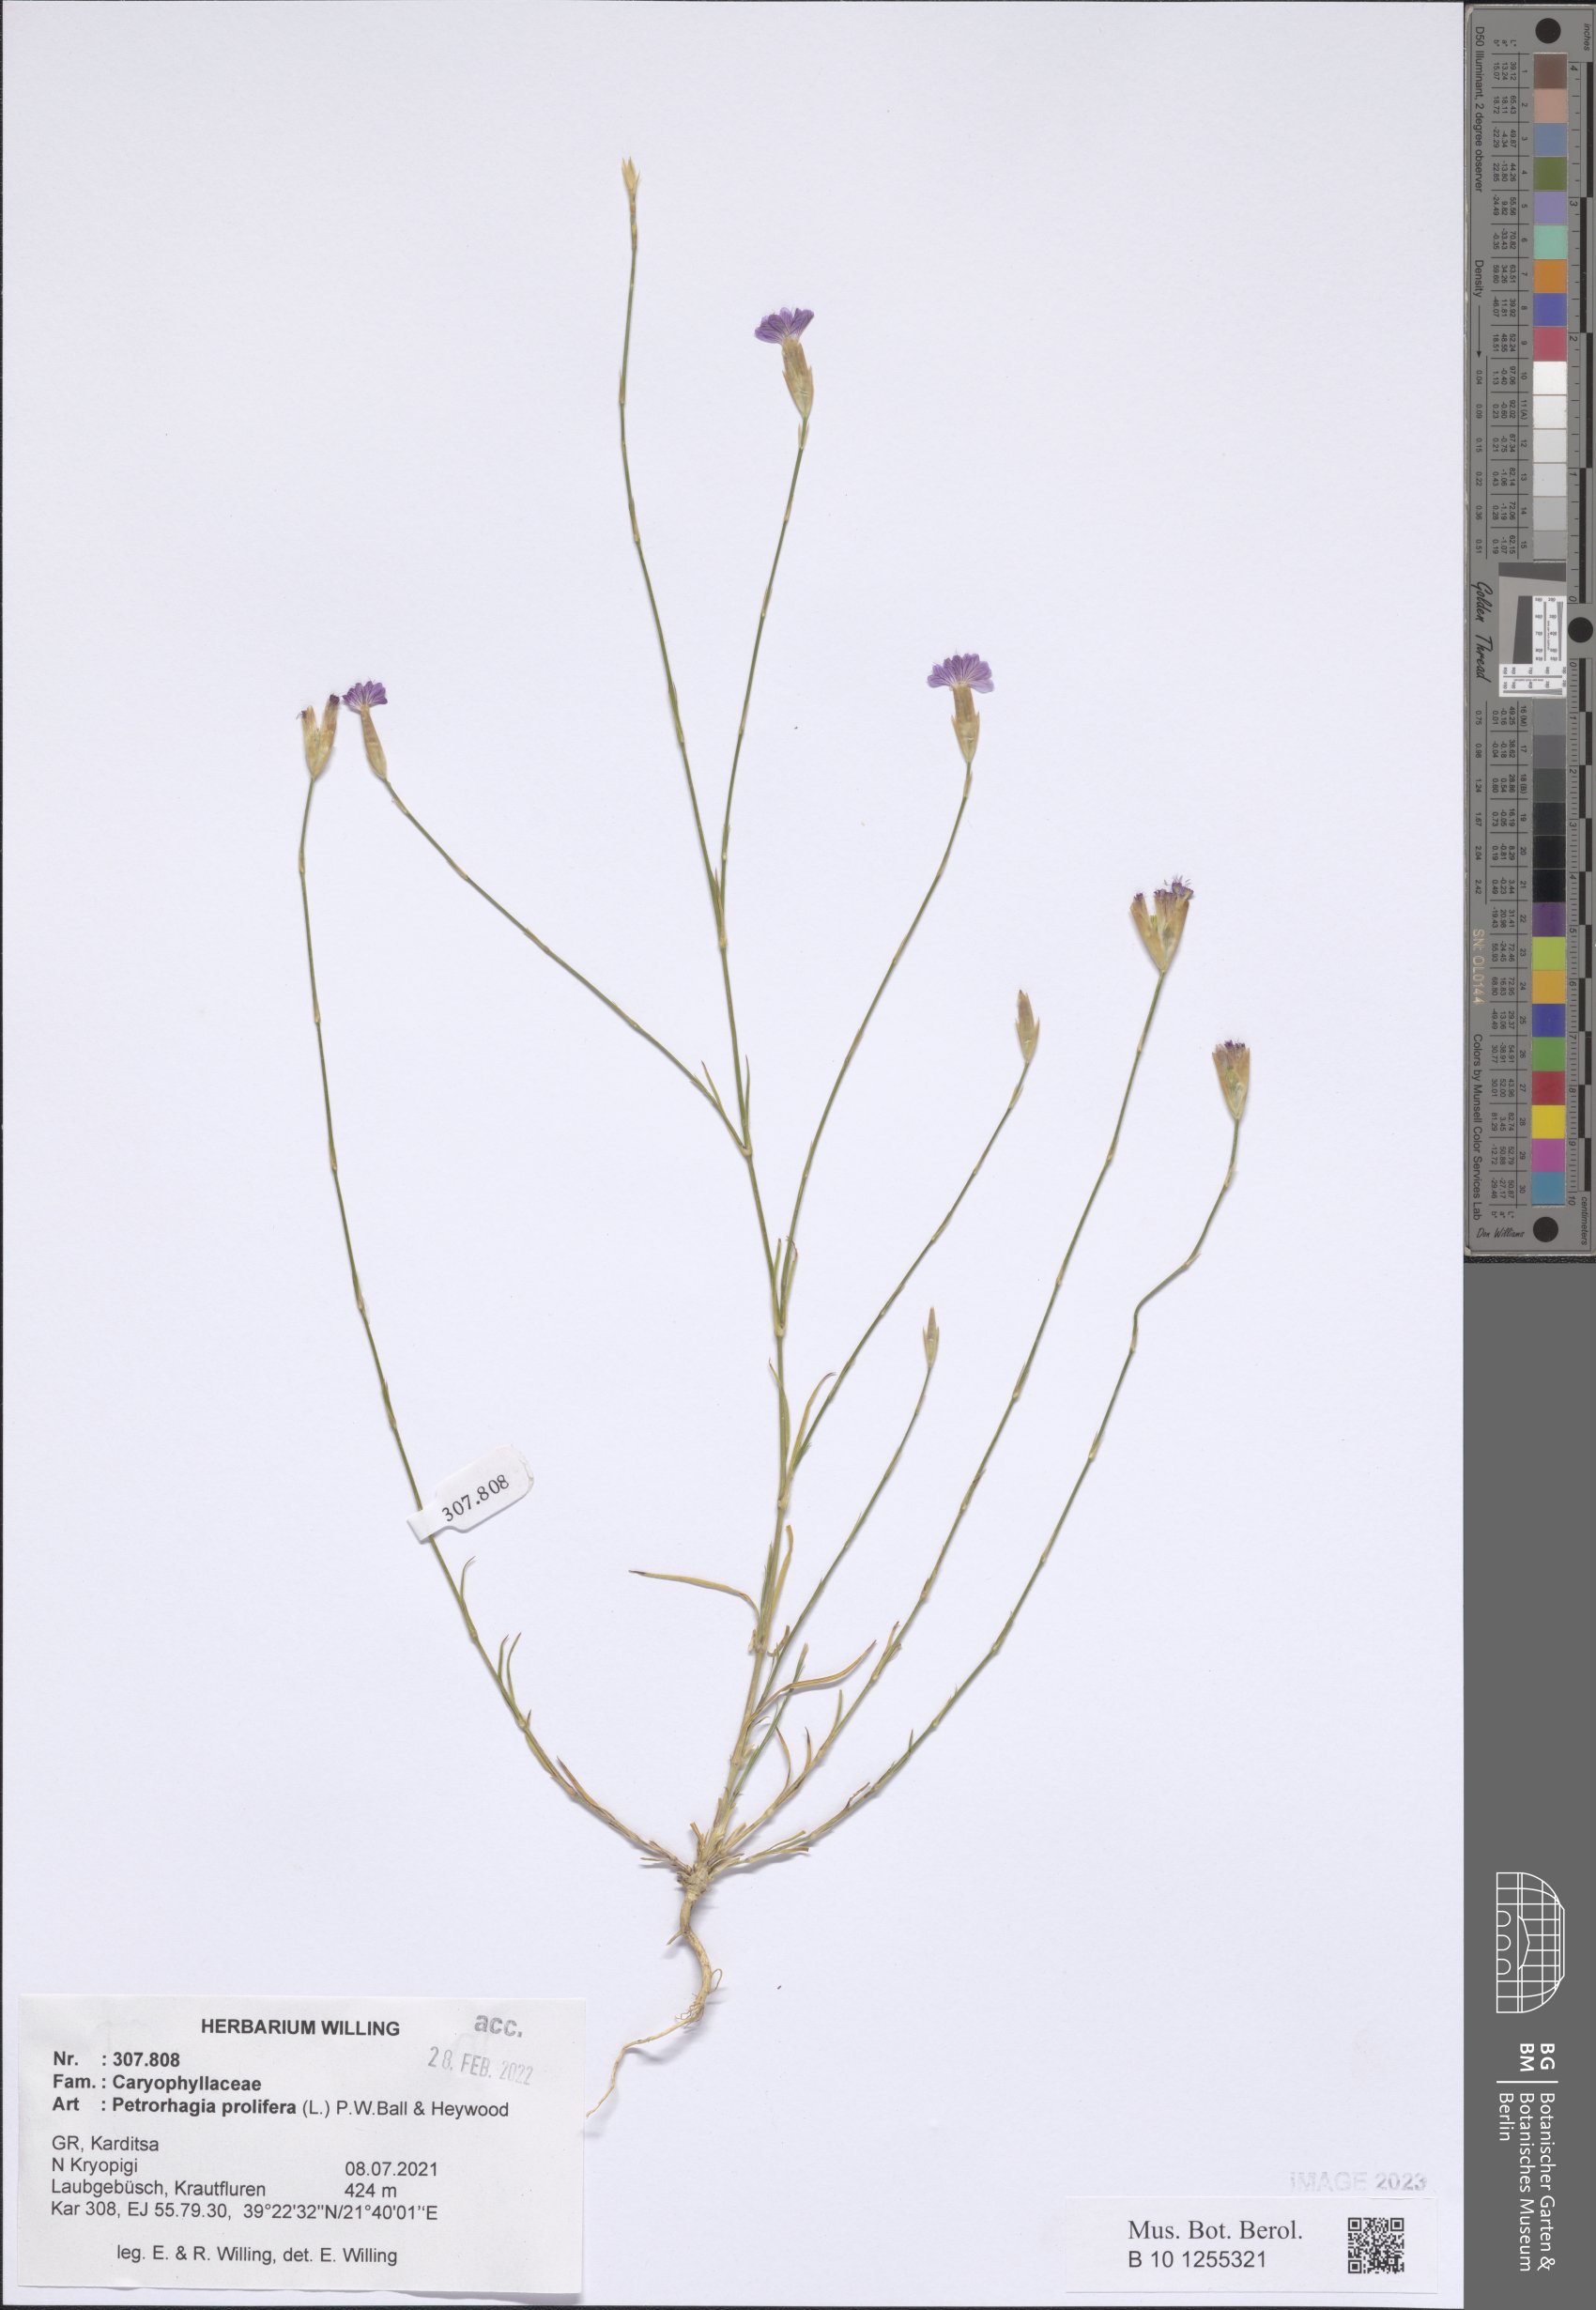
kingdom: Plantae
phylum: Tracheophyta
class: Magnoliopsida
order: Caryophyllales
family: Caryophyllaceae
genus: Petrorhagia
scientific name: Petrorhagia prolifera
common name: Proliferous pink
